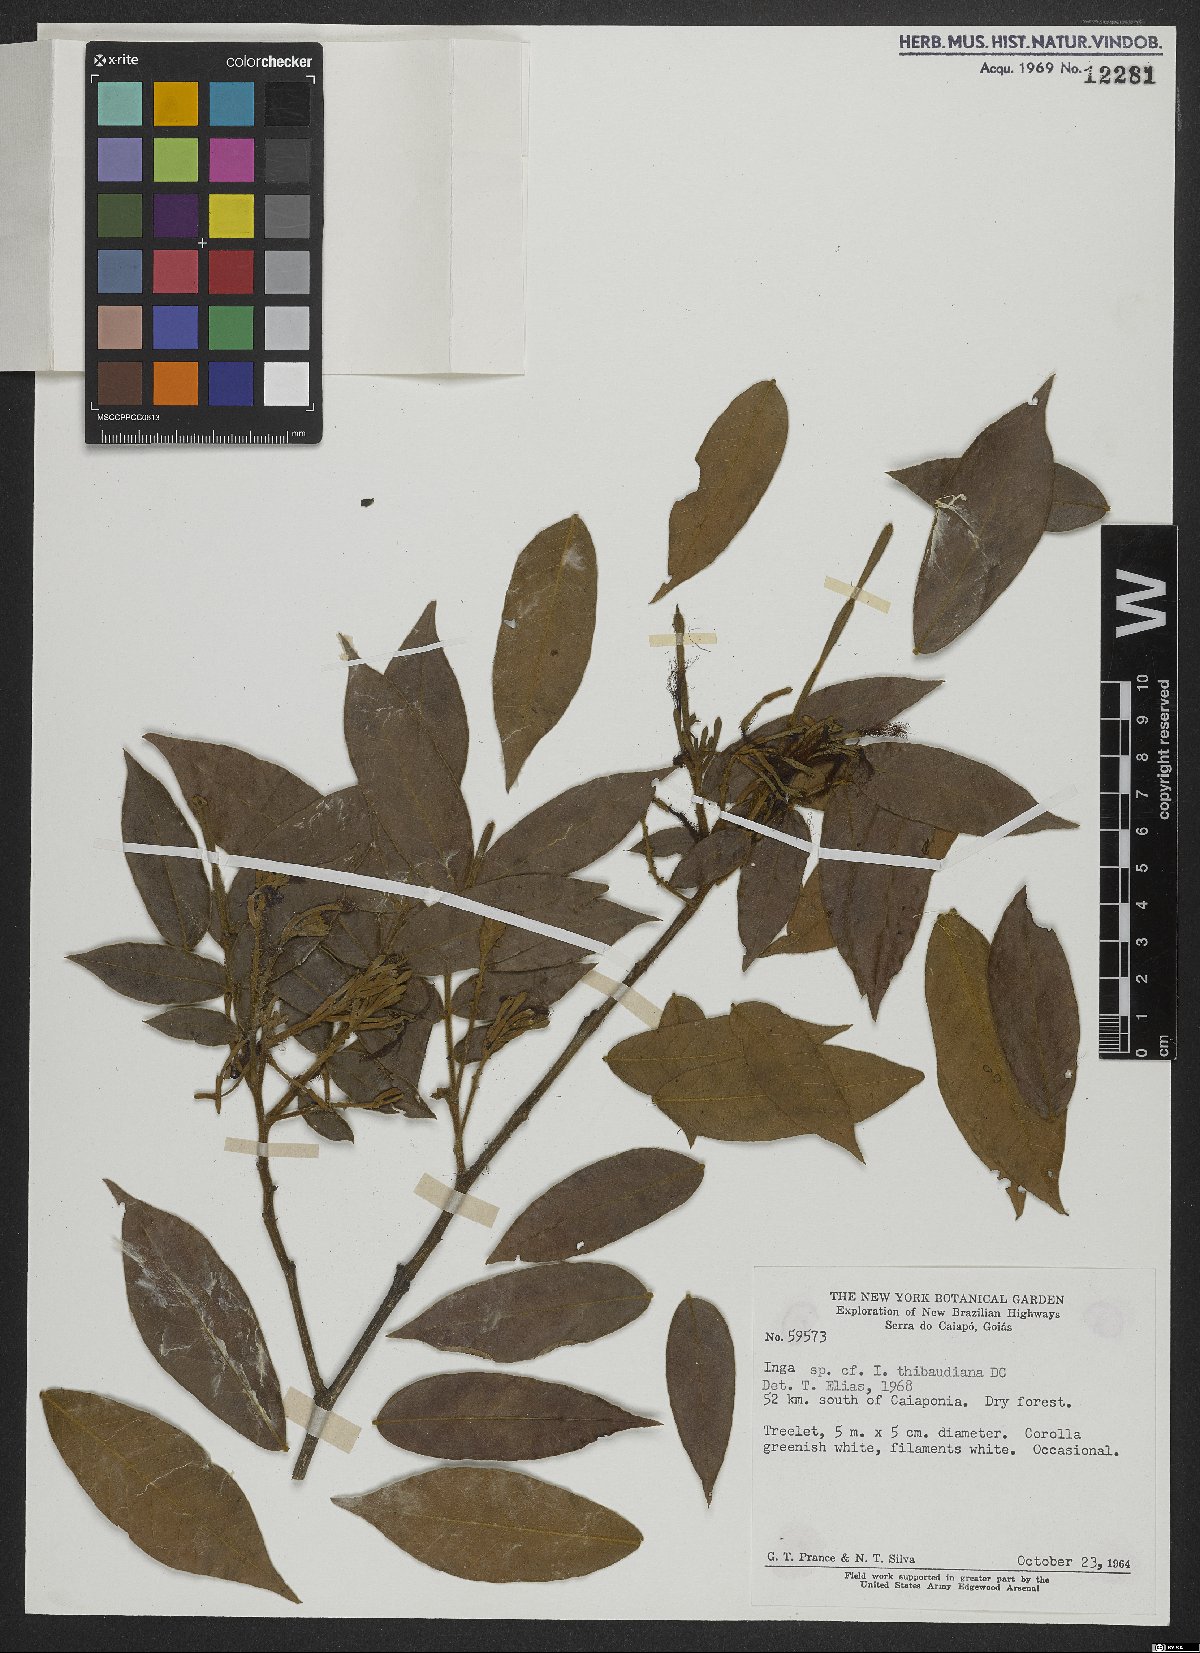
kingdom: Plantae
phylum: Tracheophyta
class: Magnoliopsida
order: Fabales
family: Fabaceae
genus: Inga
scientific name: Inga thibaudiana
